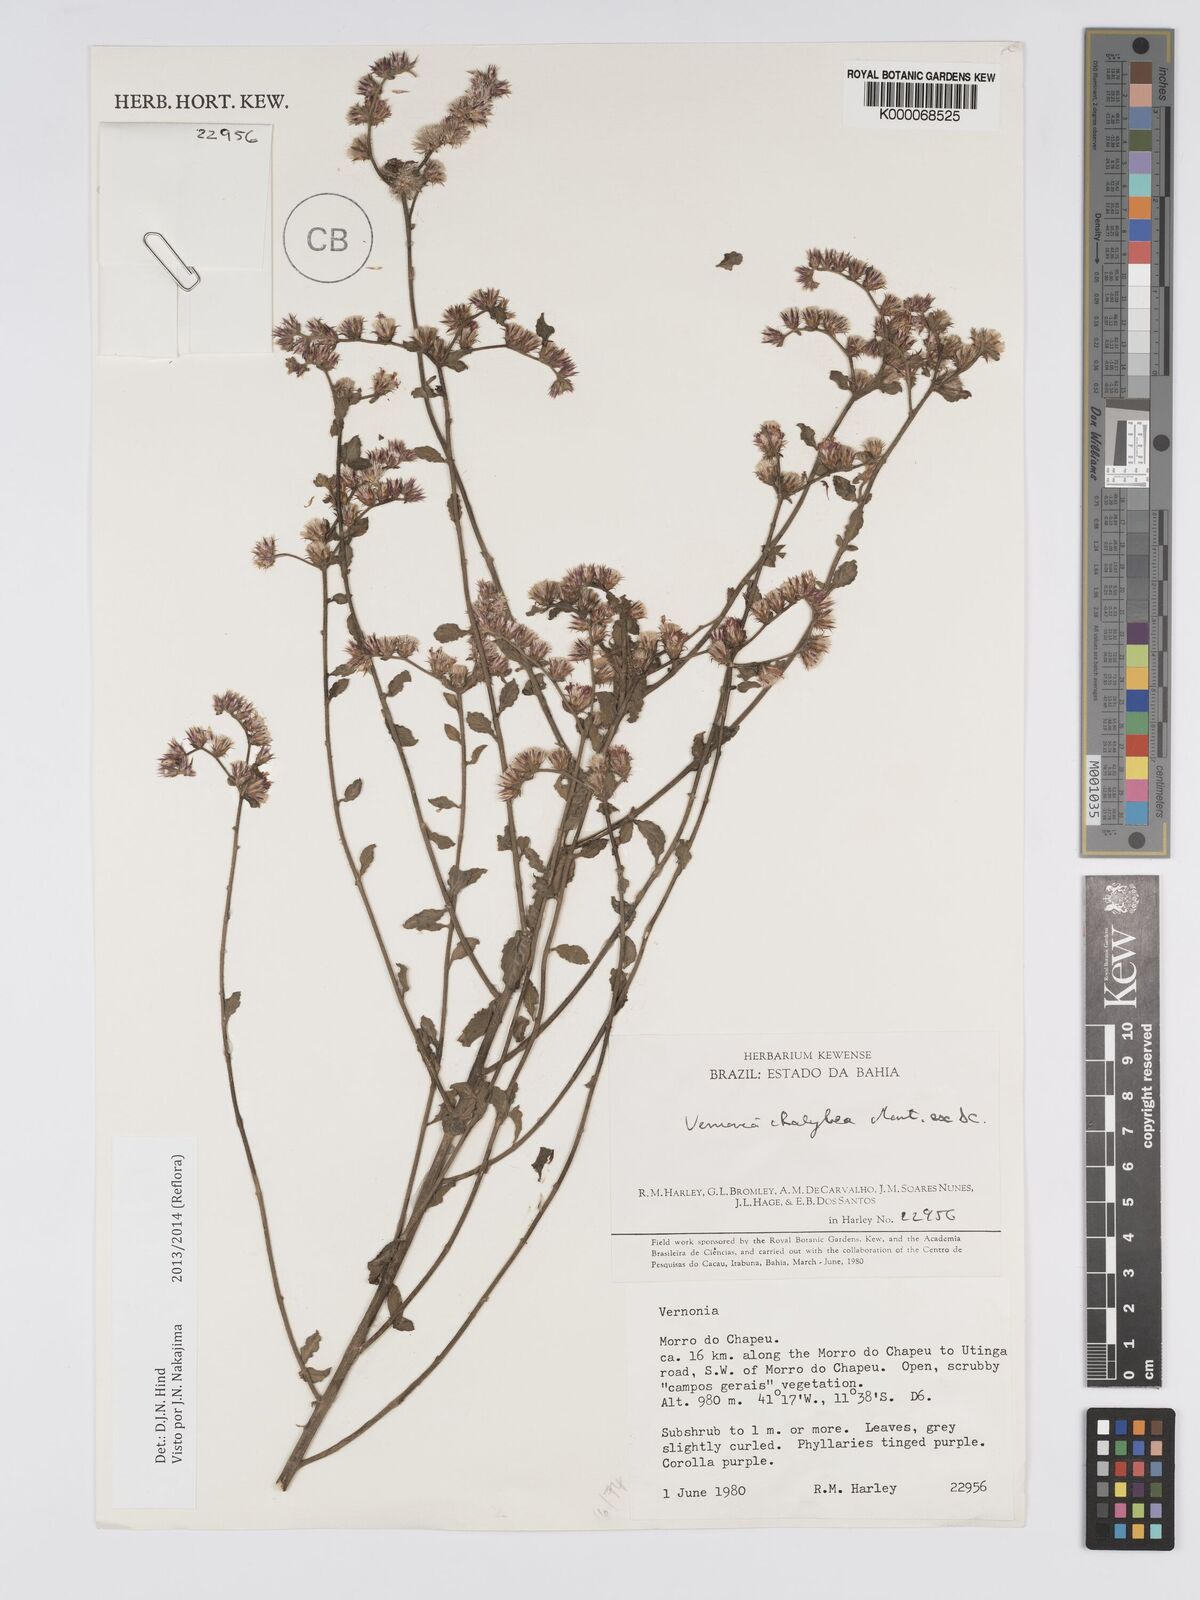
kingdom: Plantae
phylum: Tracheophyta
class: Magnoliopsida
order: Asterales
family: Asteraceae
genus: Lepidaploa
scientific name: Lepidaploa chalybaea
